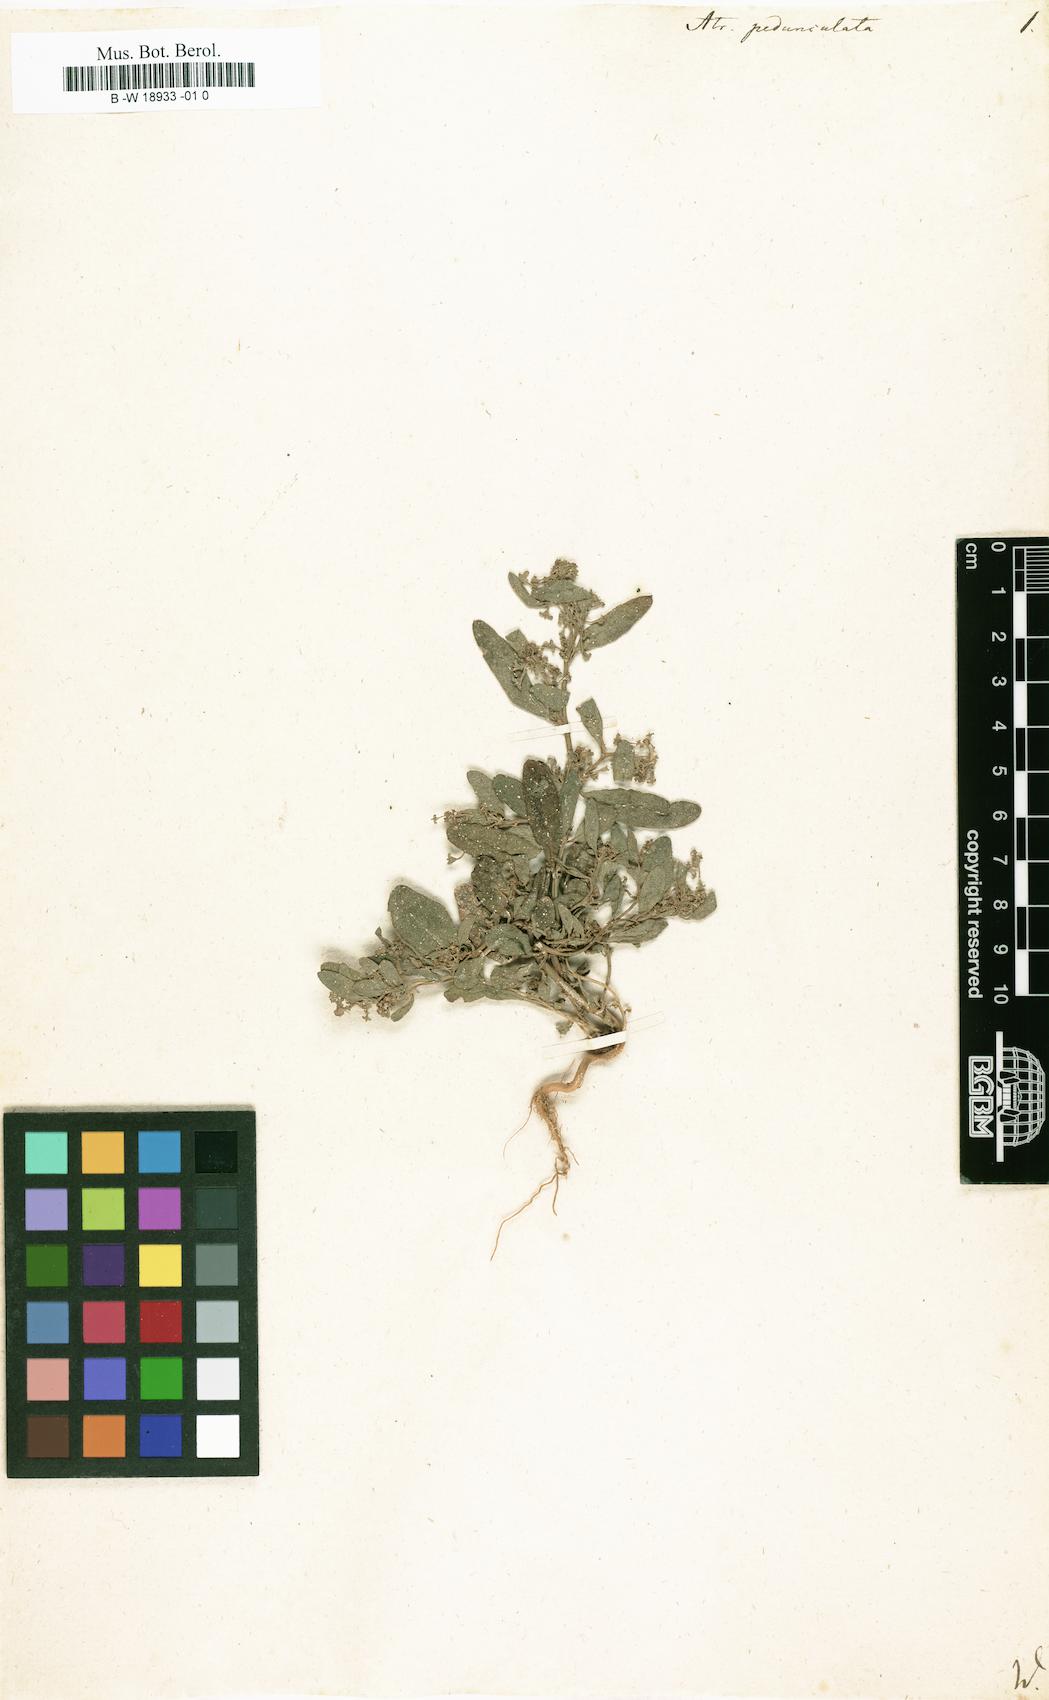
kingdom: Plantae
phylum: Tracheophyta
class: Magnoliopsida
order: Caryophyllales
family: Amaranthaceae
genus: Halimione
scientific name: Halimione pedunculata
